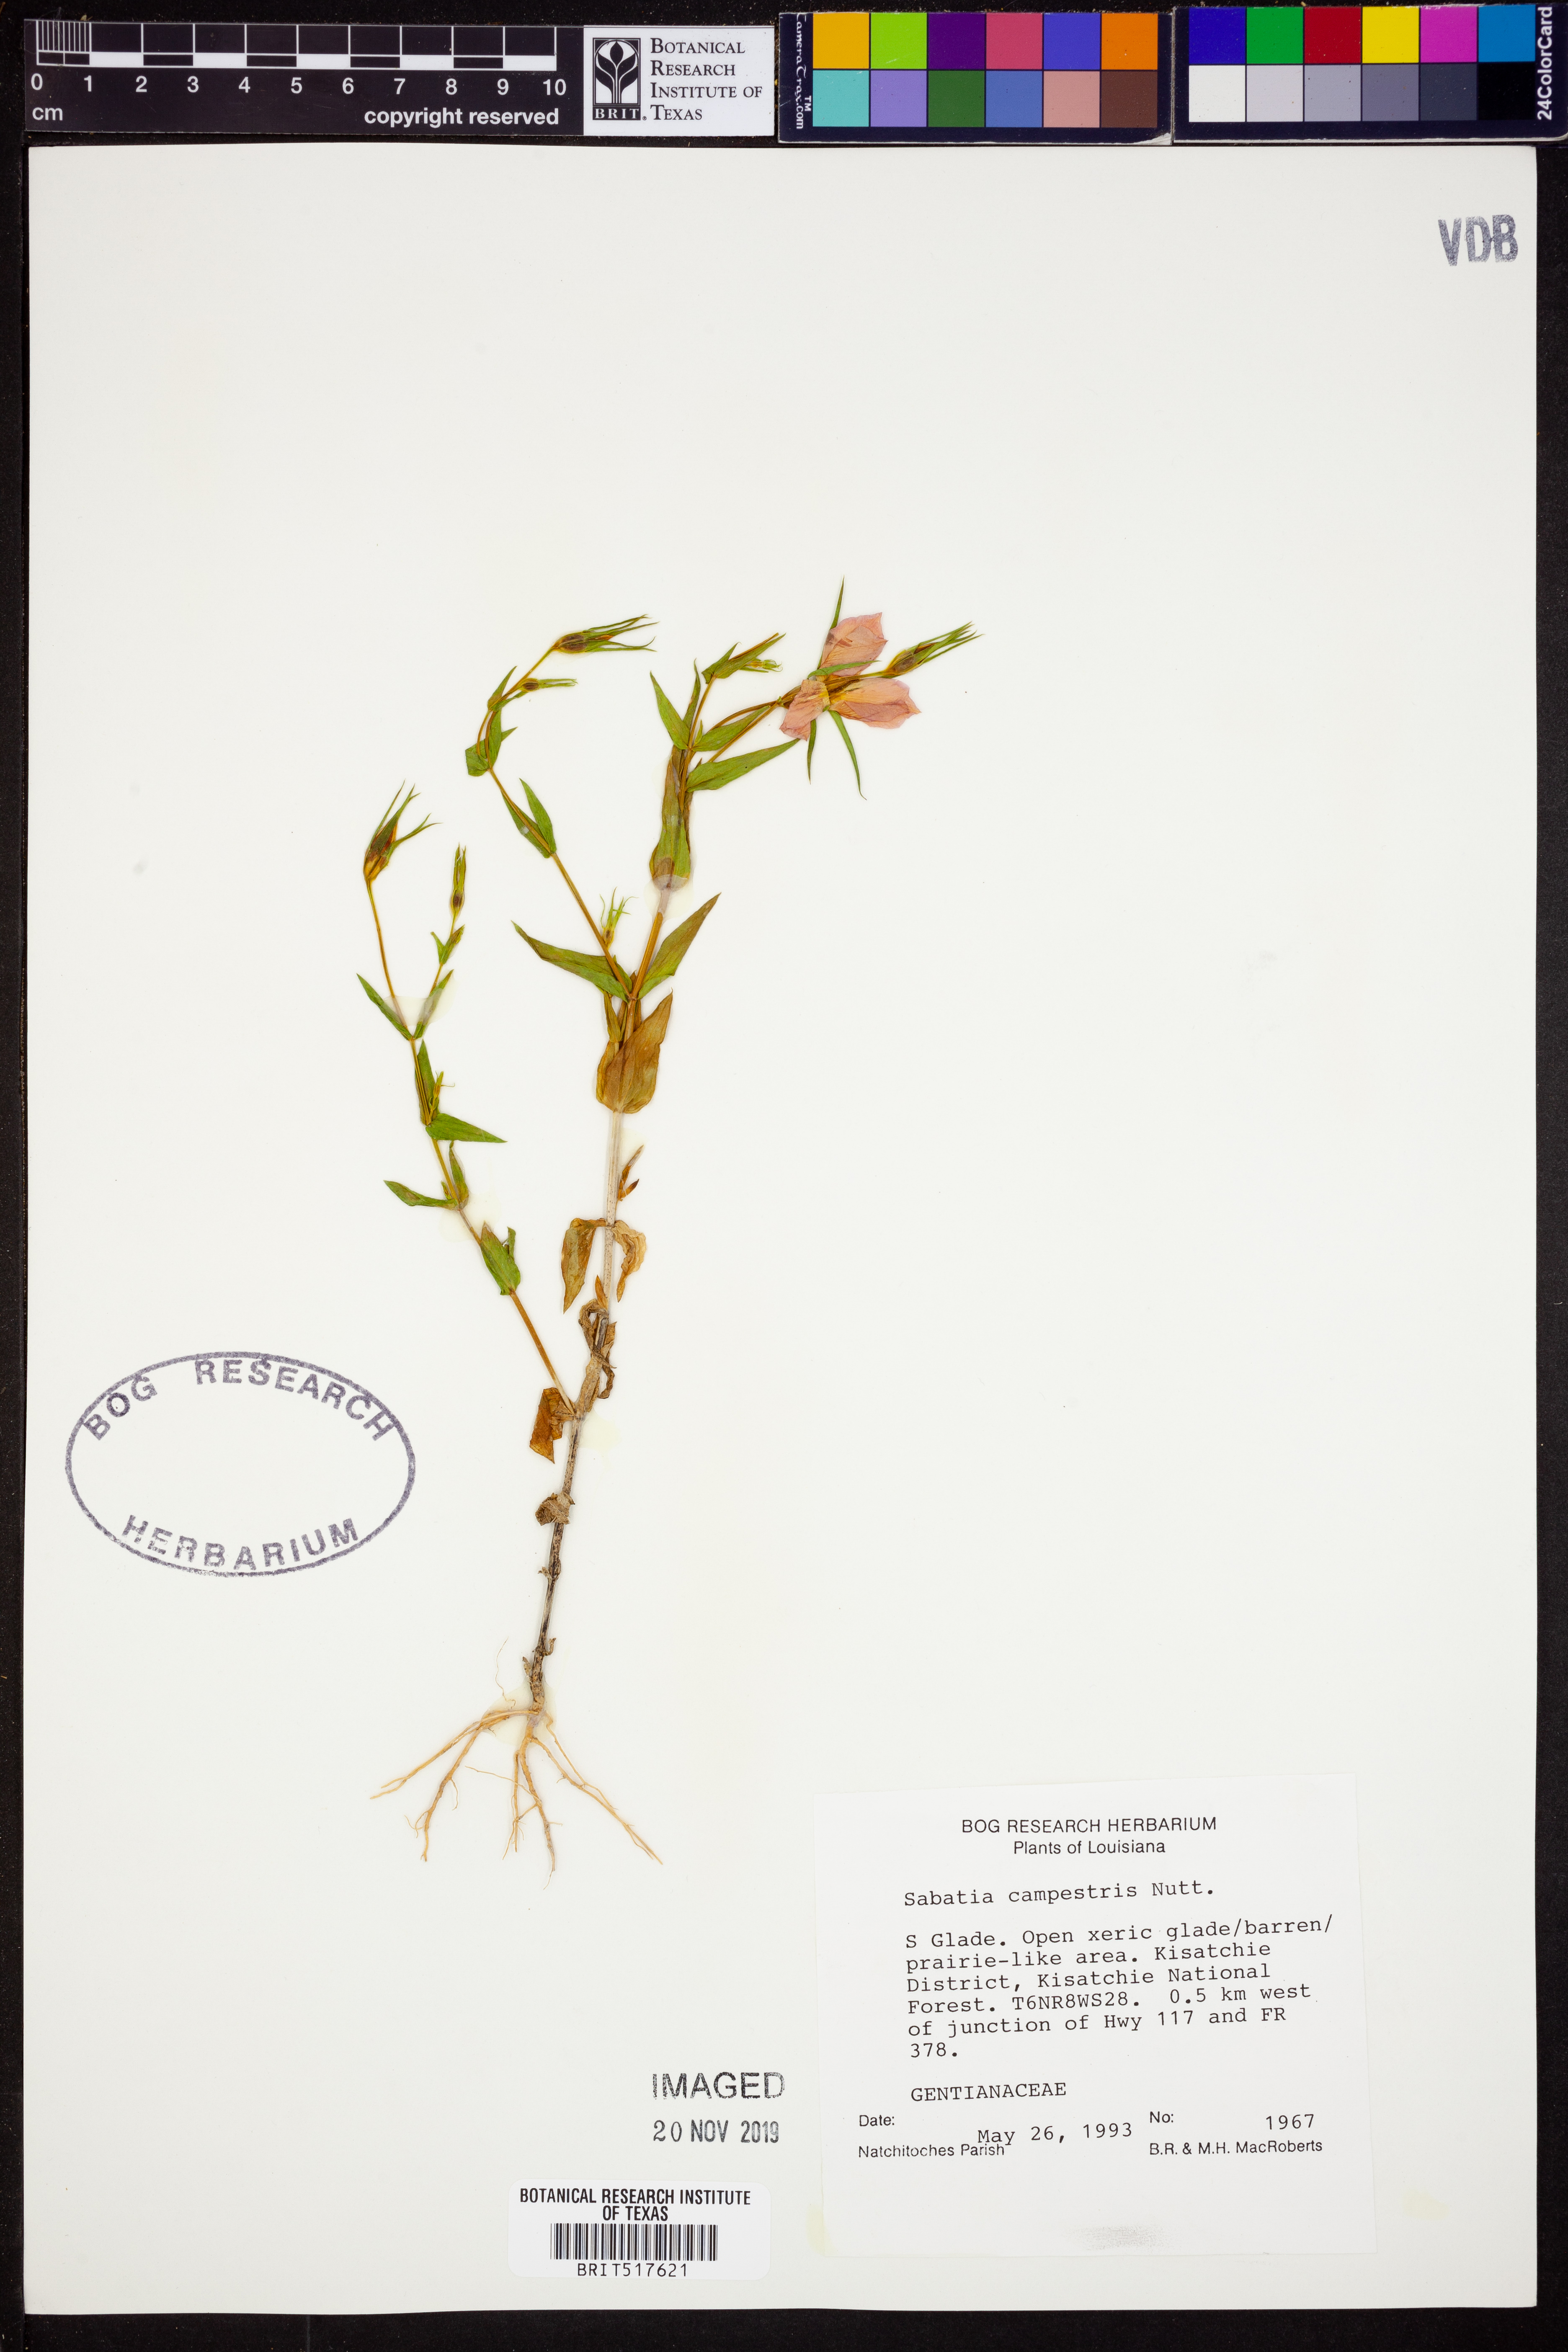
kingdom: Plantae
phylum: Tracheophyta
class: Magnoliopsida
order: Gentianales
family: Gentianaceae
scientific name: Gentianaceae
